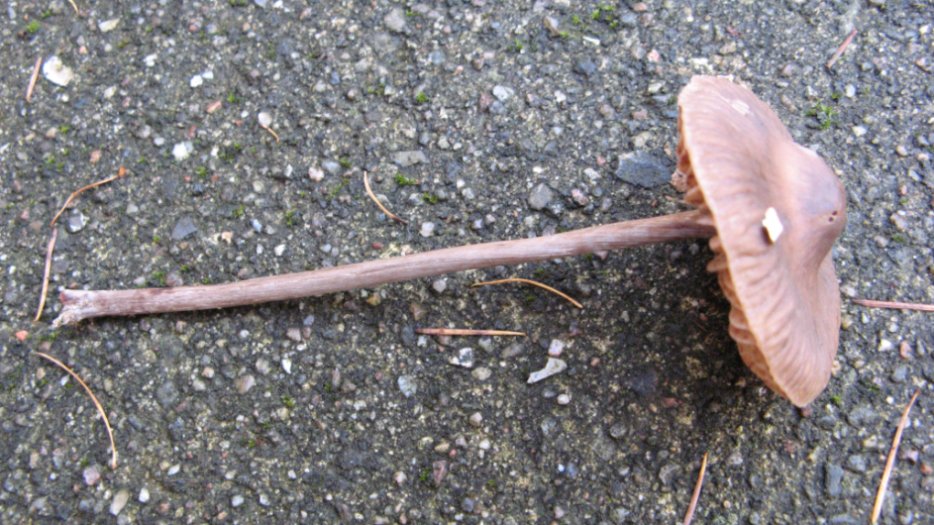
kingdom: Fungi
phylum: Basidiomycota
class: Agaricomycetes
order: Agaricales
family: Mycenaceae
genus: Mycena
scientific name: Mycena polygramma
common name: mangestribet huesvamp
